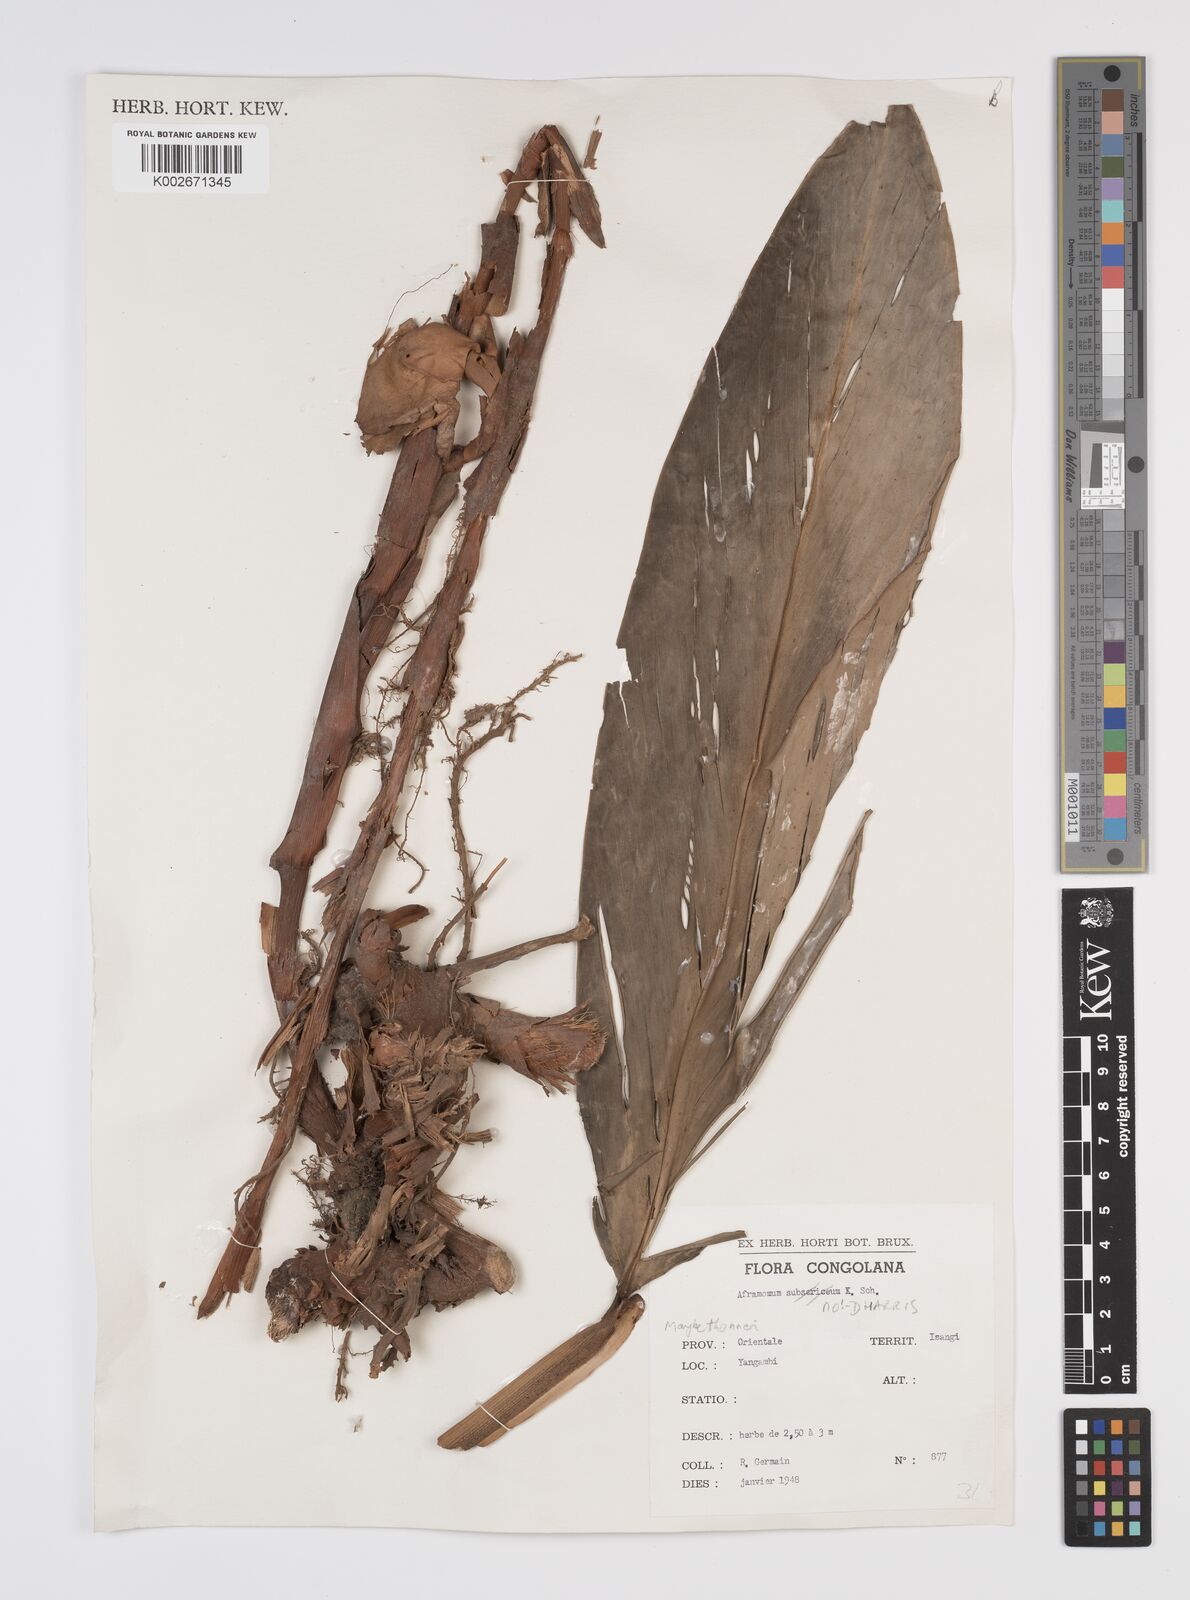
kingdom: Plantae
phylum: Tracheophyta
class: Liliopsida
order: Zingiberales
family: Zingiberaceae
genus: Aframomum
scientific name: Aframomum
